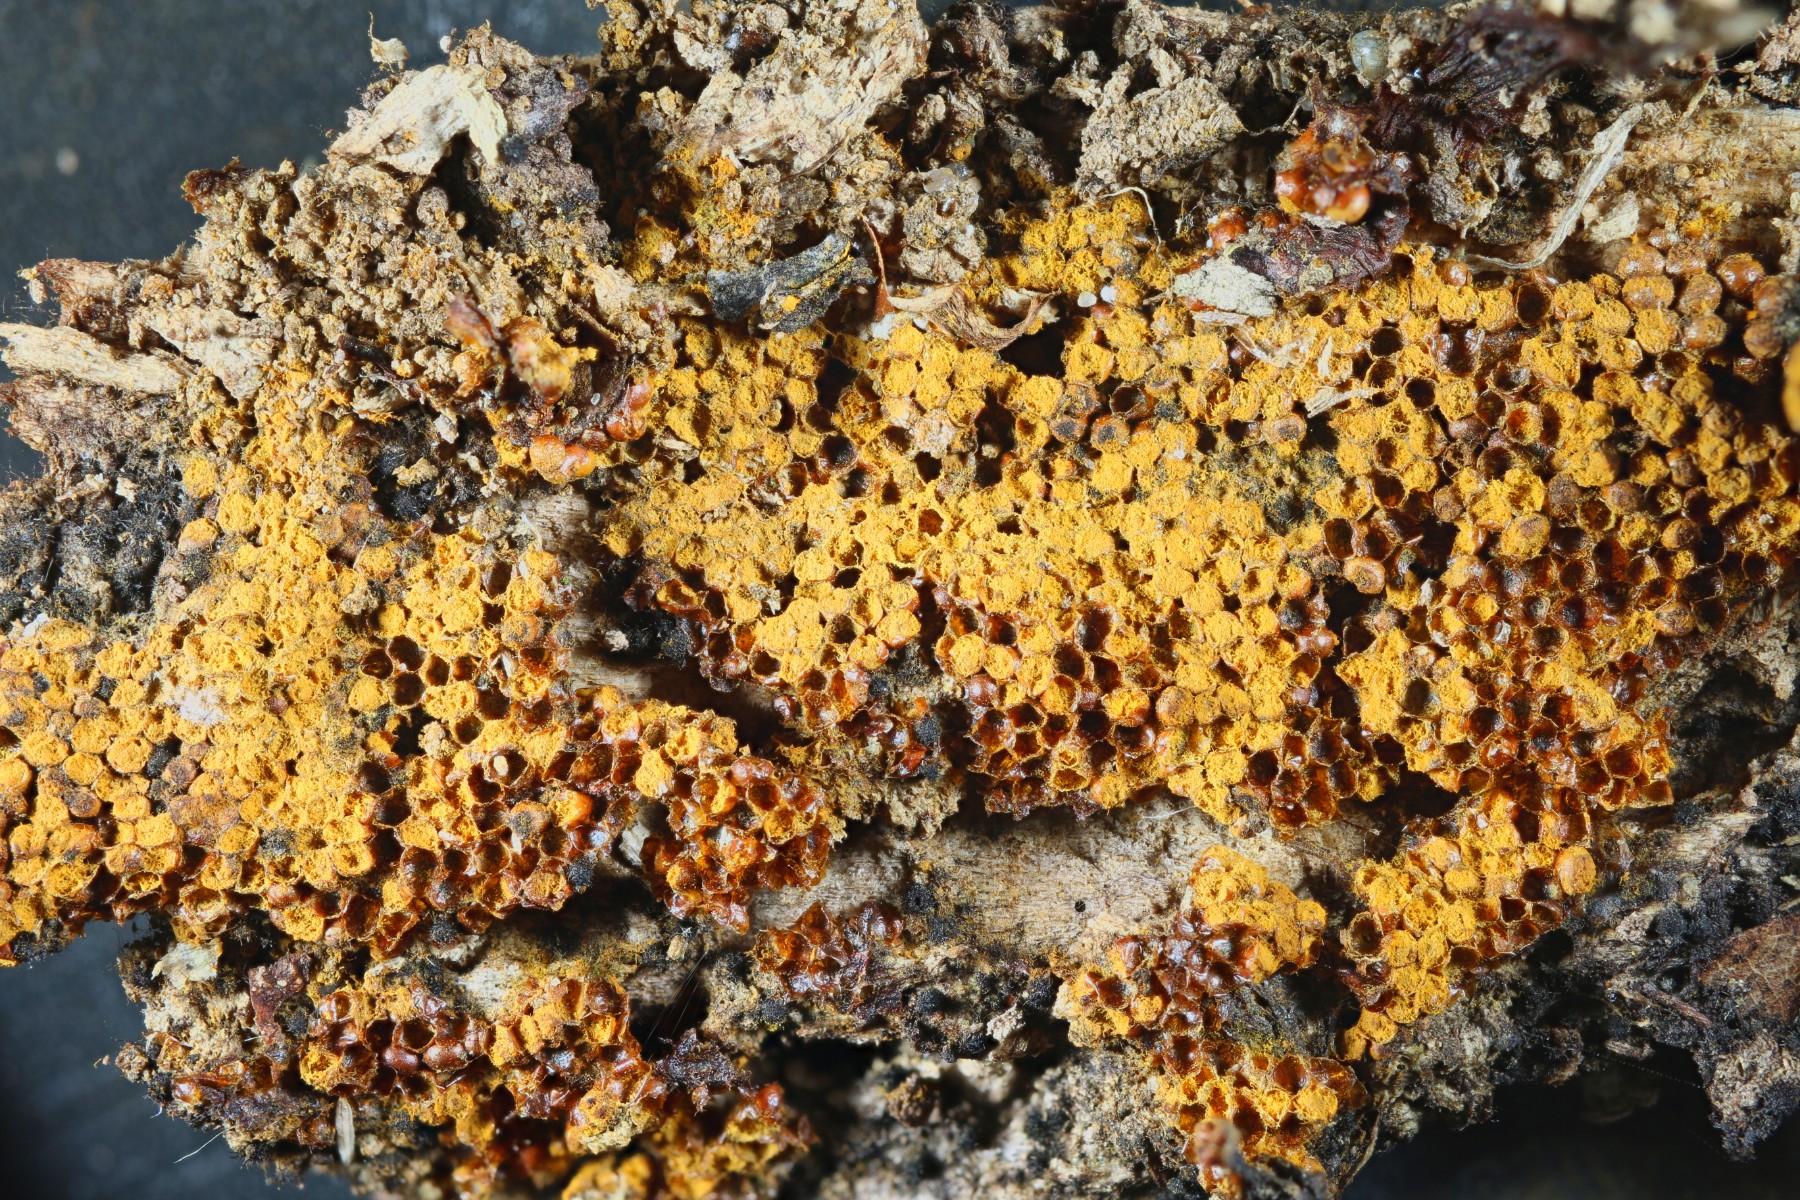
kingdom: Protozoa
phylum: Mycetozoa
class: Myxomycetes
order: Trichiales
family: Trichiaceae
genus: Trichia
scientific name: Trichia scabra
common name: tæppe-hårbold
